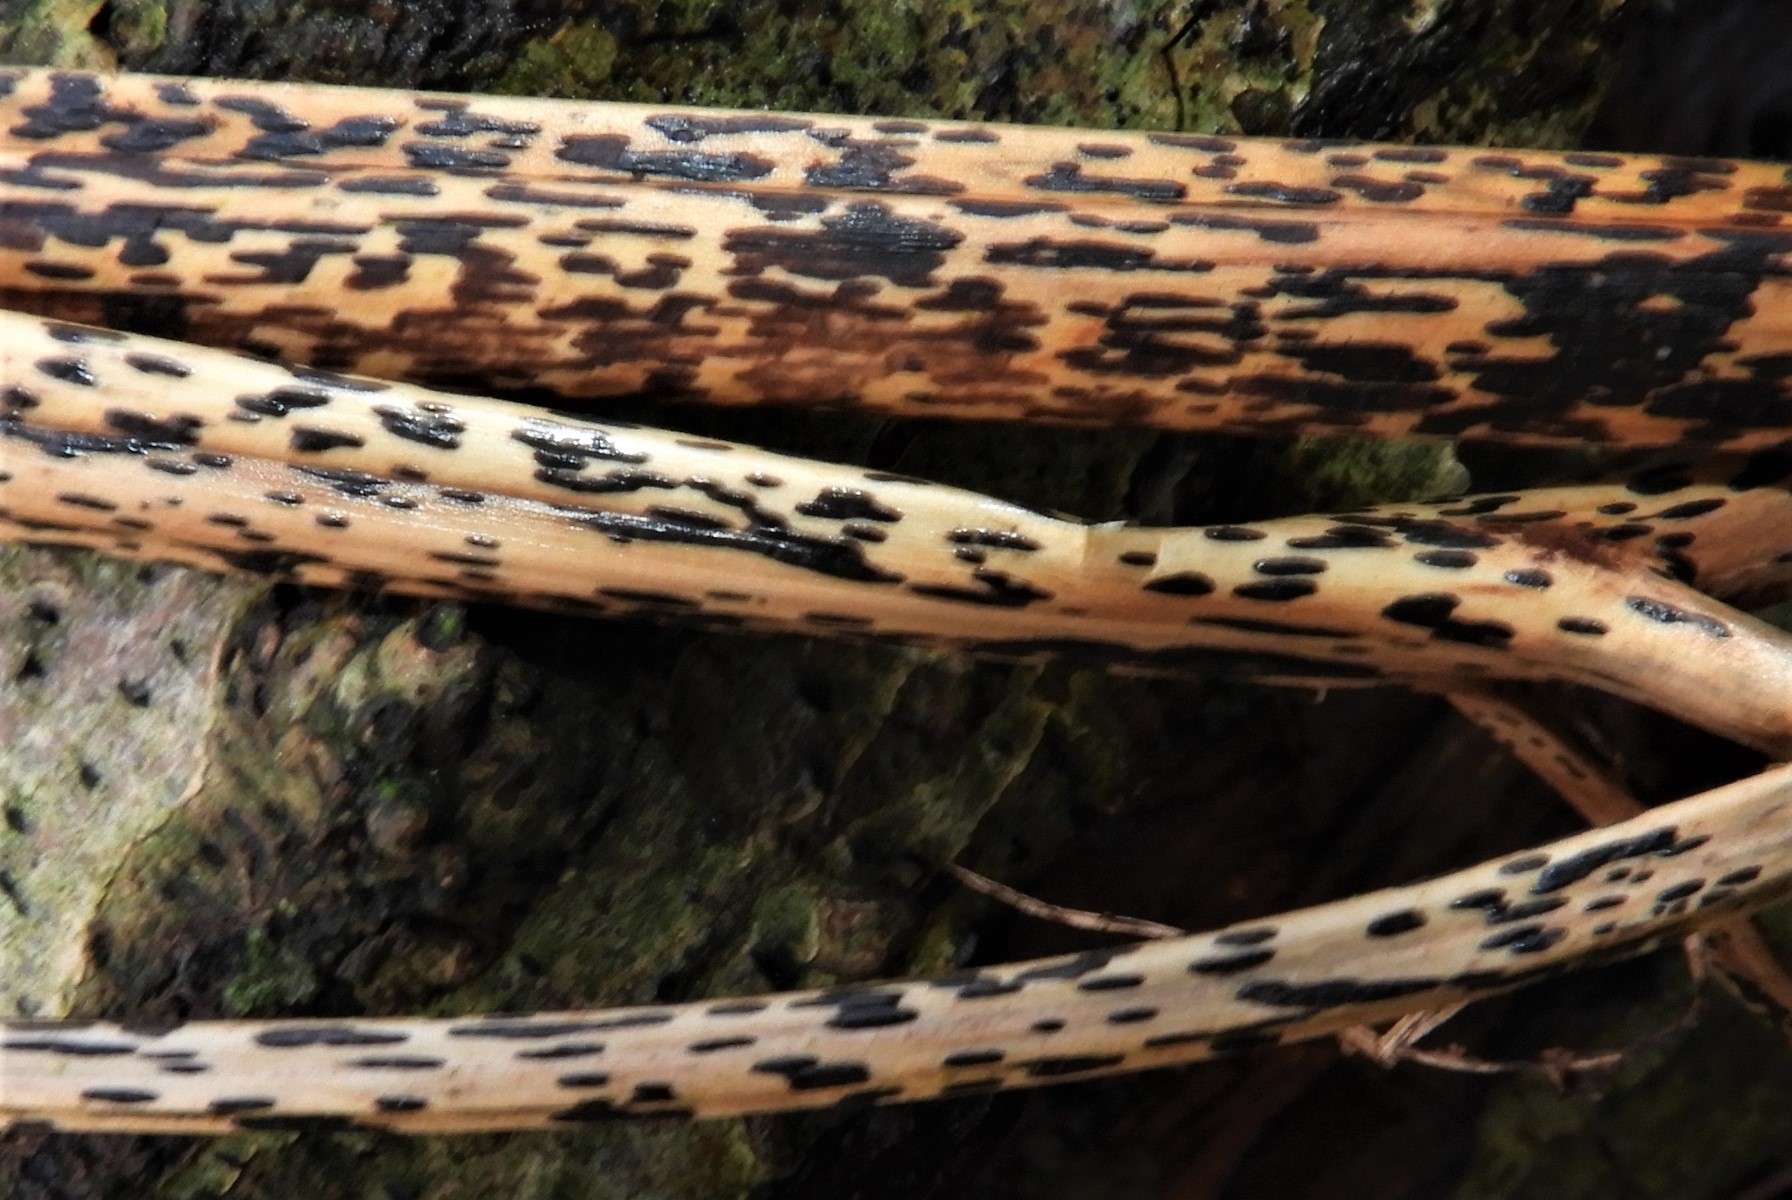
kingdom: Fungi
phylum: Ascomycota
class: Dothideomycetes
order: Pleosporales
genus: Rhopographus
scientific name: Rhopographus filicinus
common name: Bracken map
